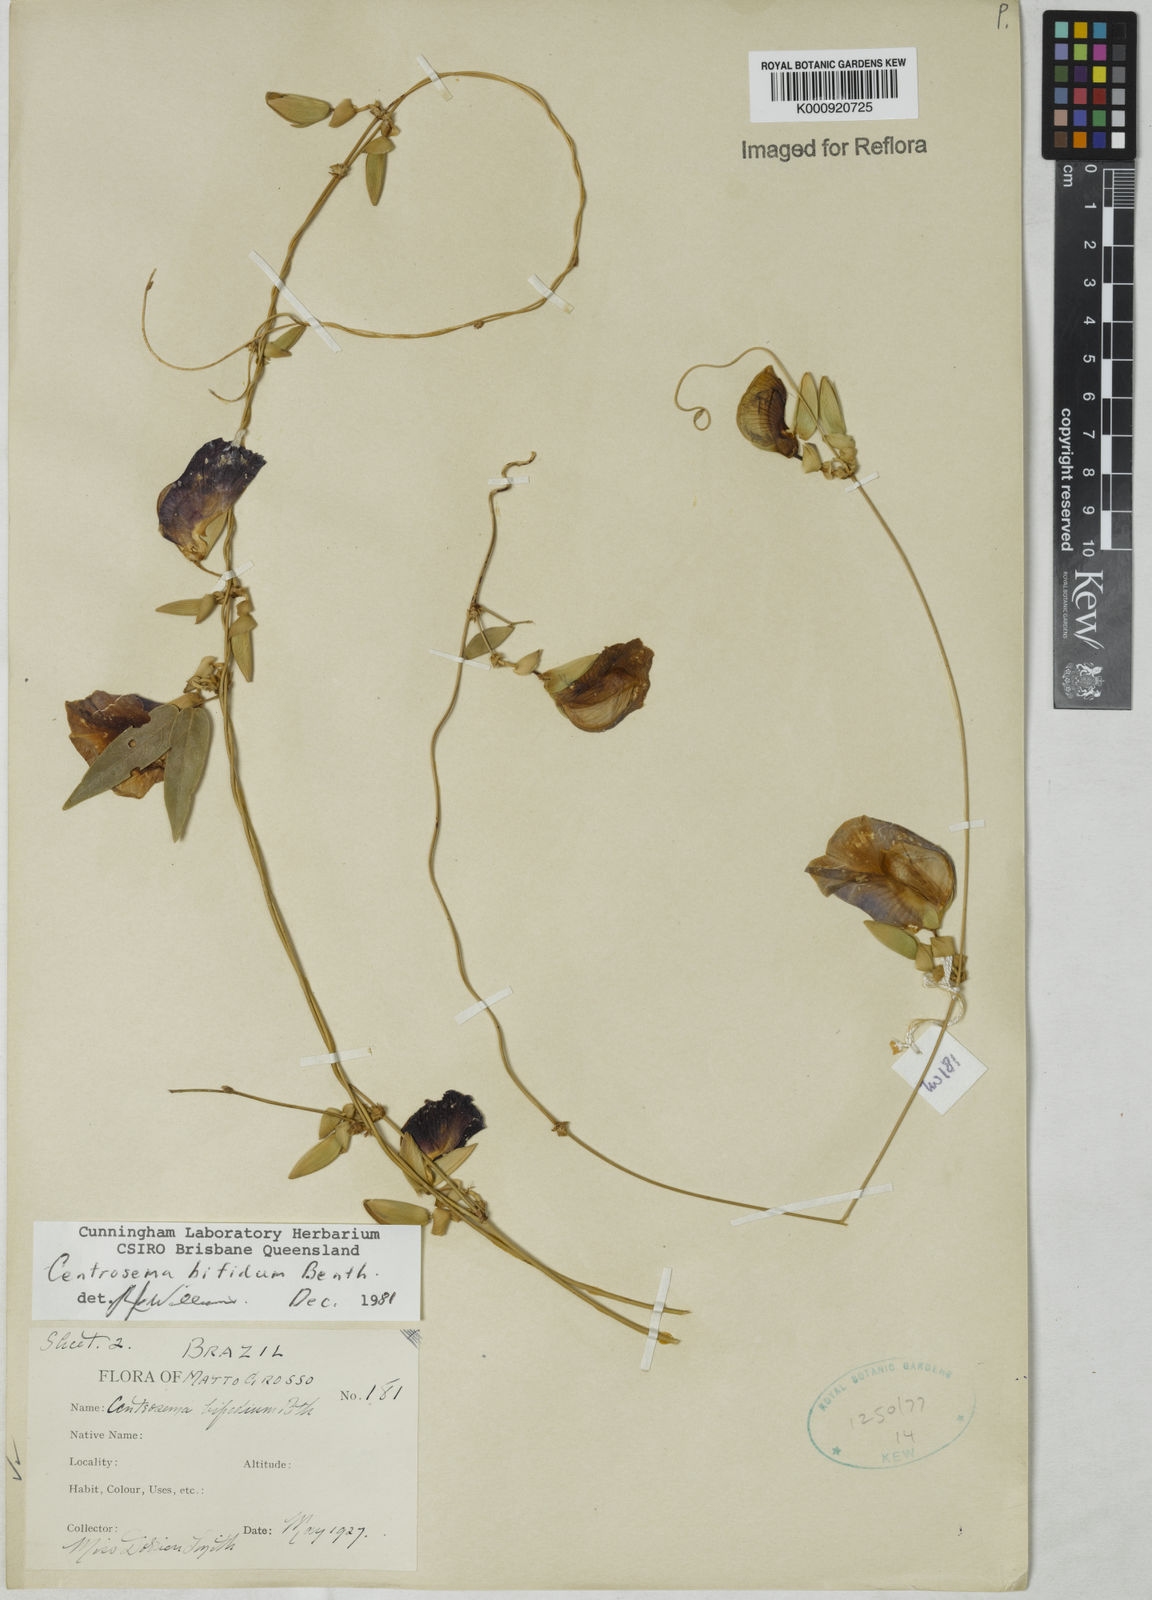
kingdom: Plantae
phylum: Tracheophyta
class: Magnoliopsida
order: Fabales
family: Fabaceae
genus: Centrosema
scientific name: Centrosema bifidum
